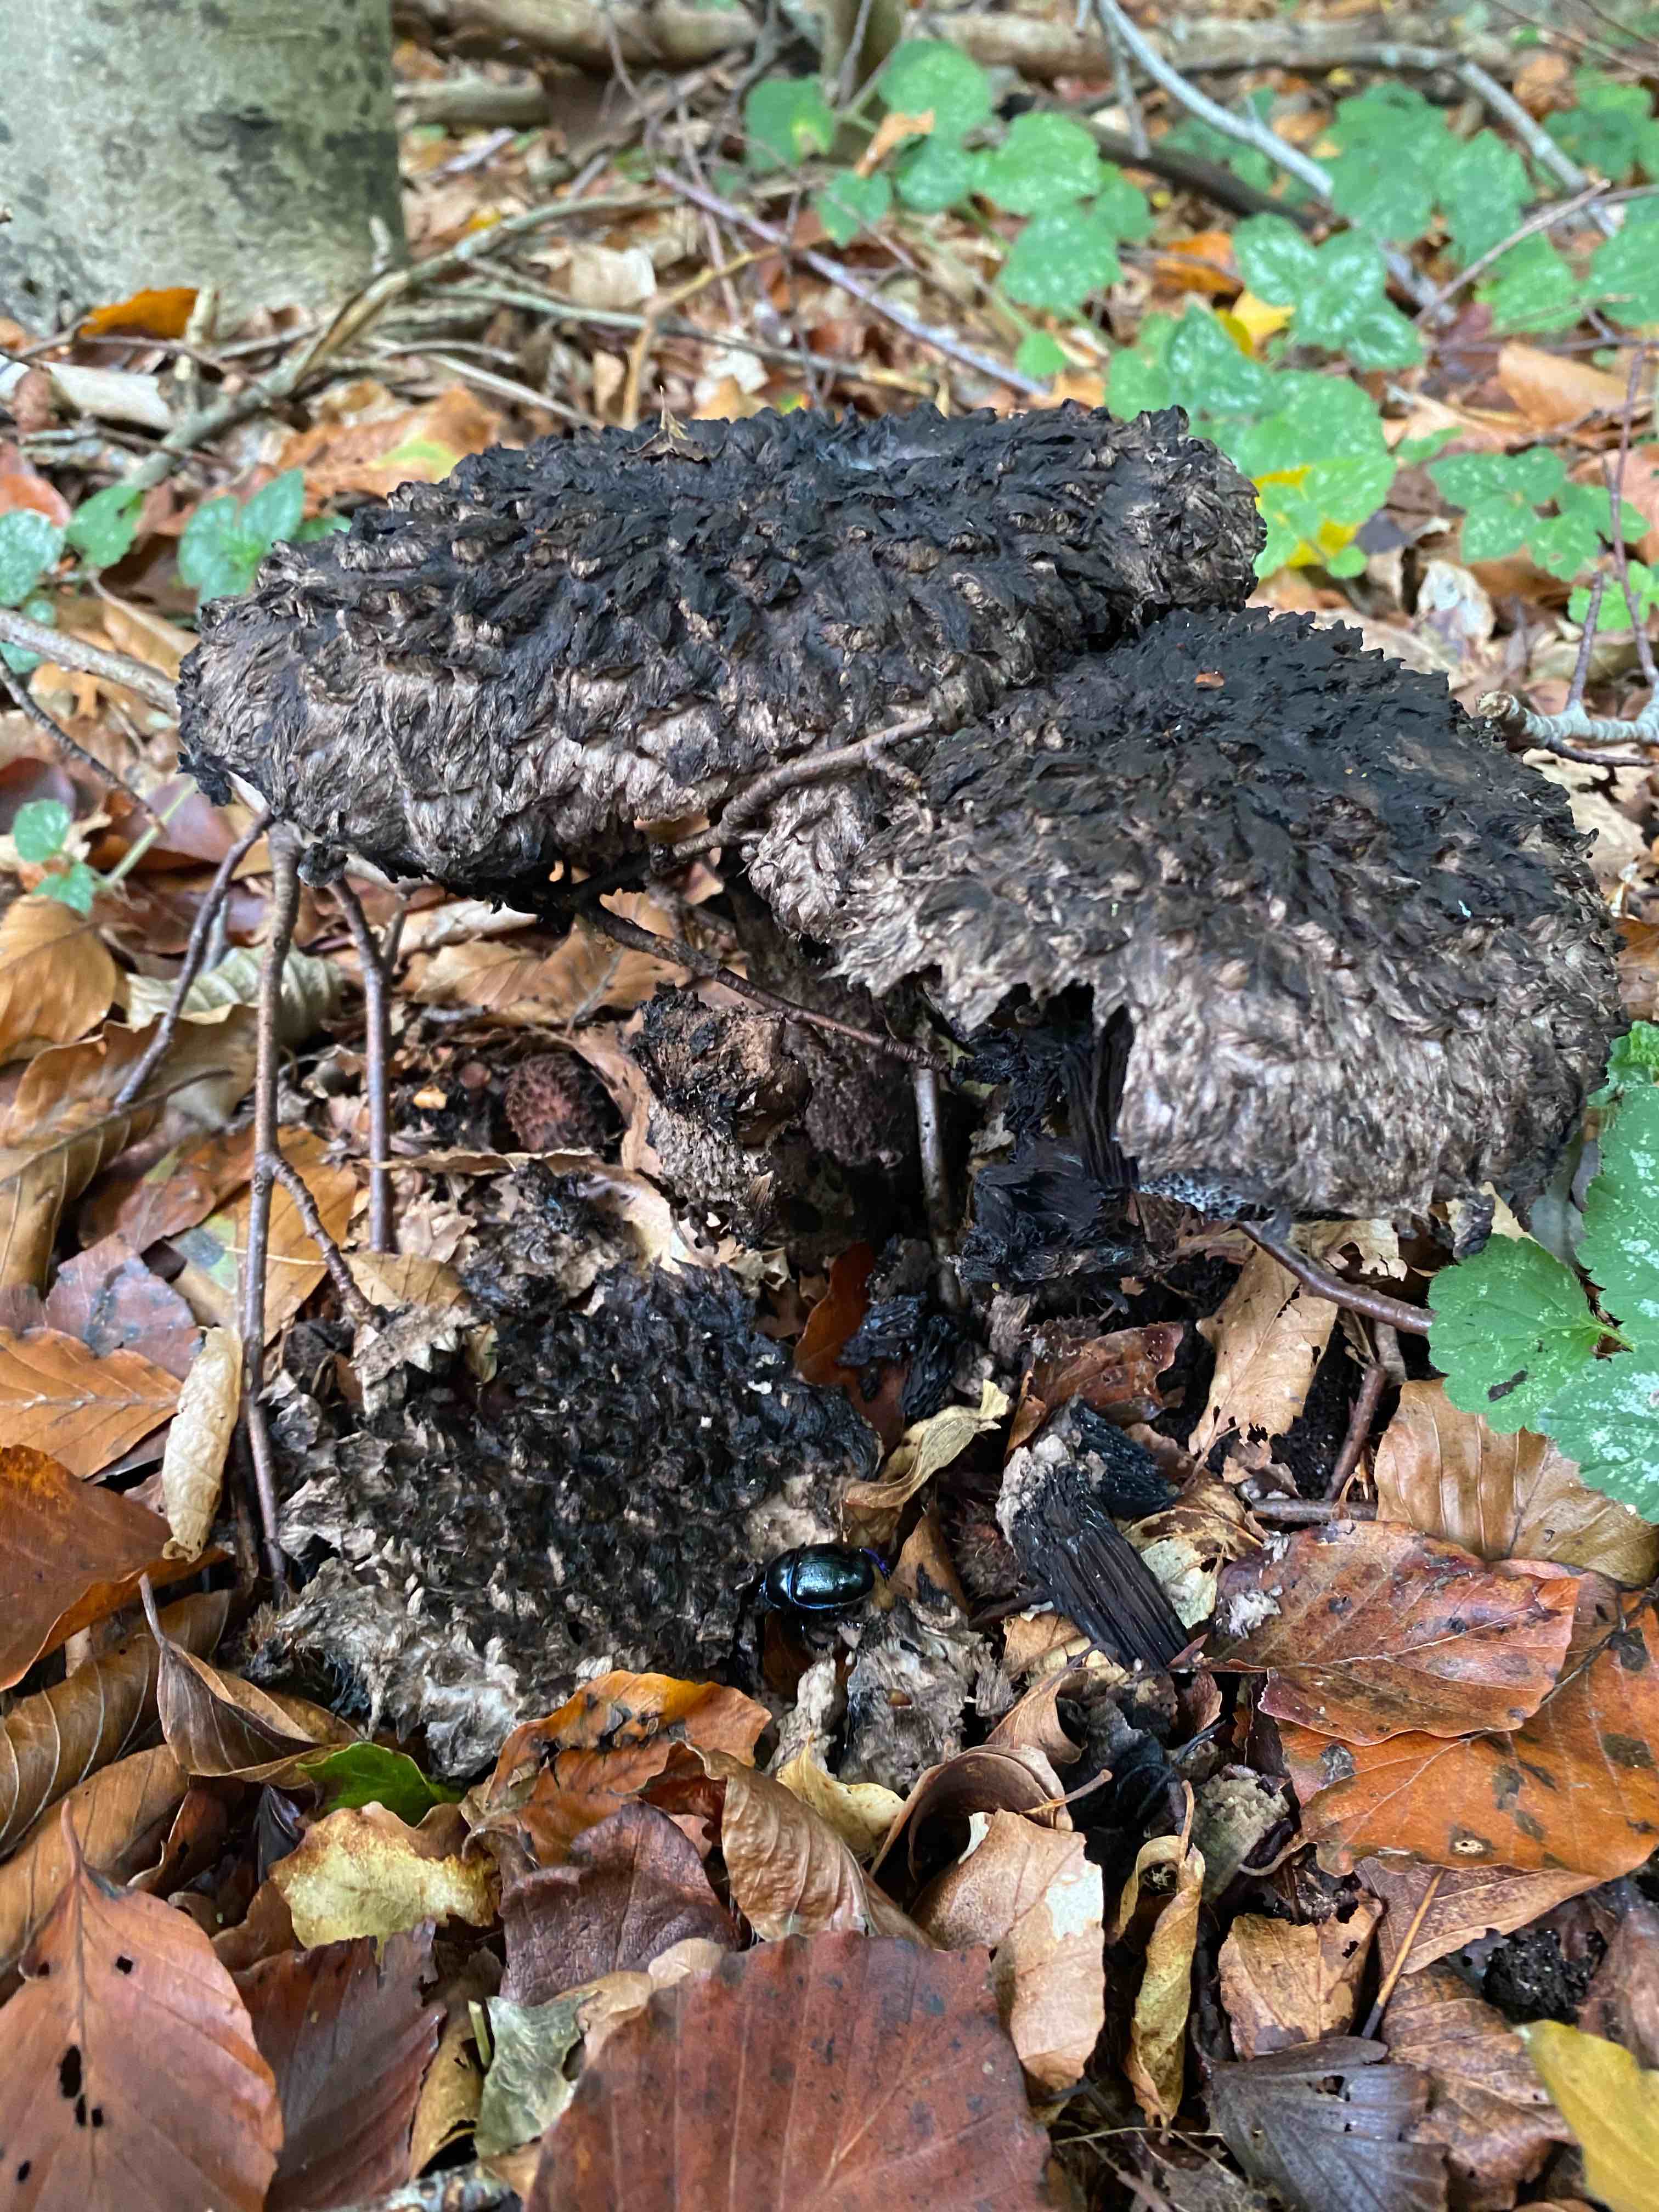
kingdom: Fungi
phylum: Basidiomycota
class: Agaricomycetes
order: Boletales
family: Boletaceae
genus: Strobilomyces
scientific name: Strobilomyces strobilaceus
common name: koglerørhat
